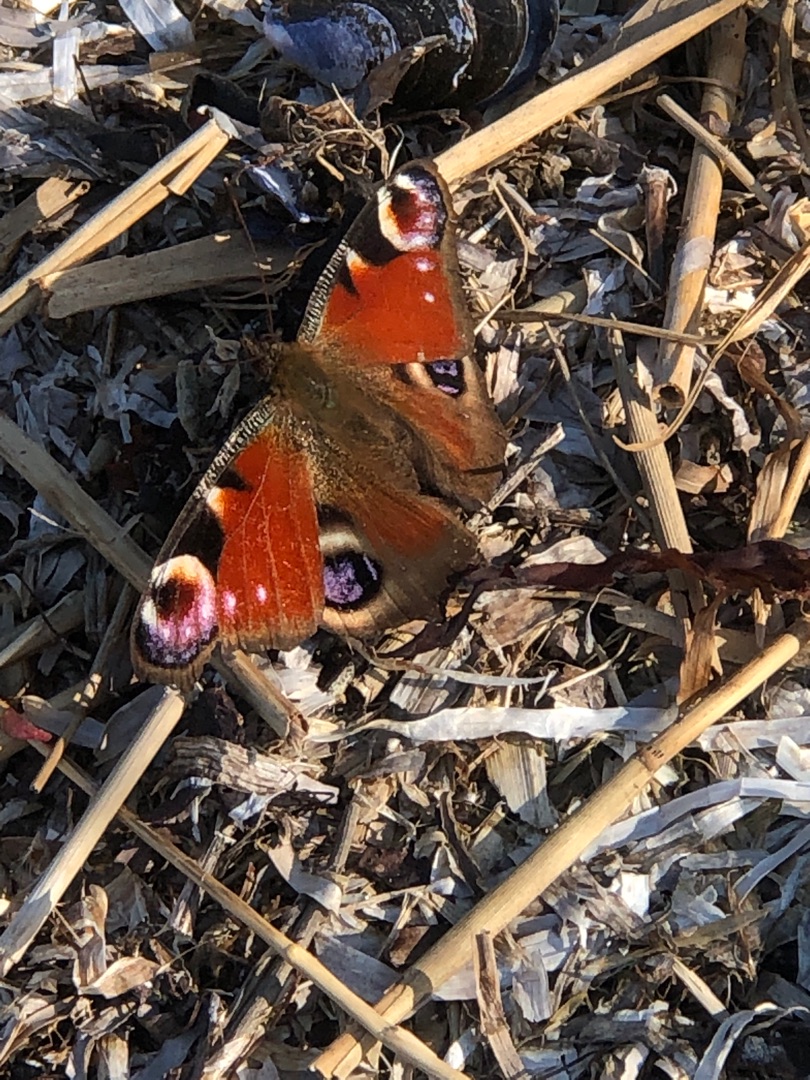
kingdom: Animalia
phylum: Arthropoda
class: Insecta
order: Lepidoptera
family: Nymphalidae
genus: Aglais
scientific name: Aglais io
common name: Dagpåfugleøje
